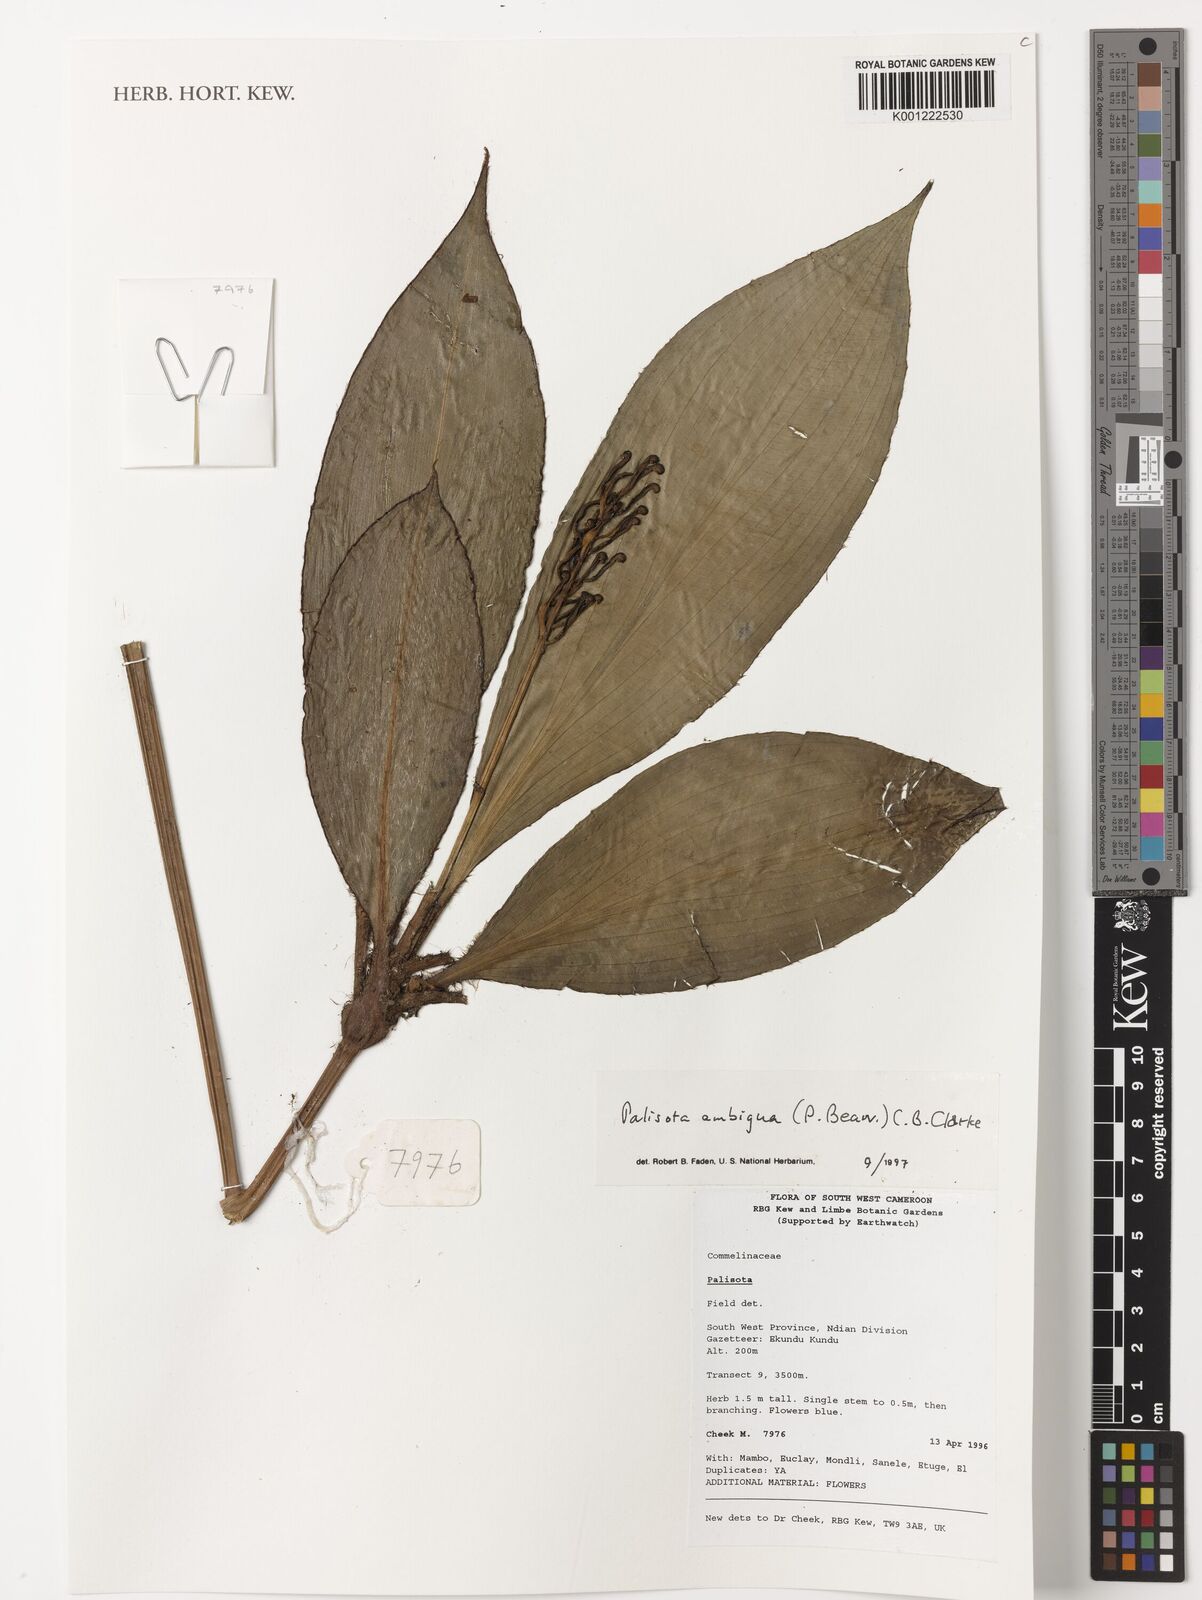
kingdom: Plantae
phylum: Tracheophyta
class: Liliopsida
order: Commelinales
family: Commelinaceae
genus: Palisota
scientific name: Palisota ambigua
